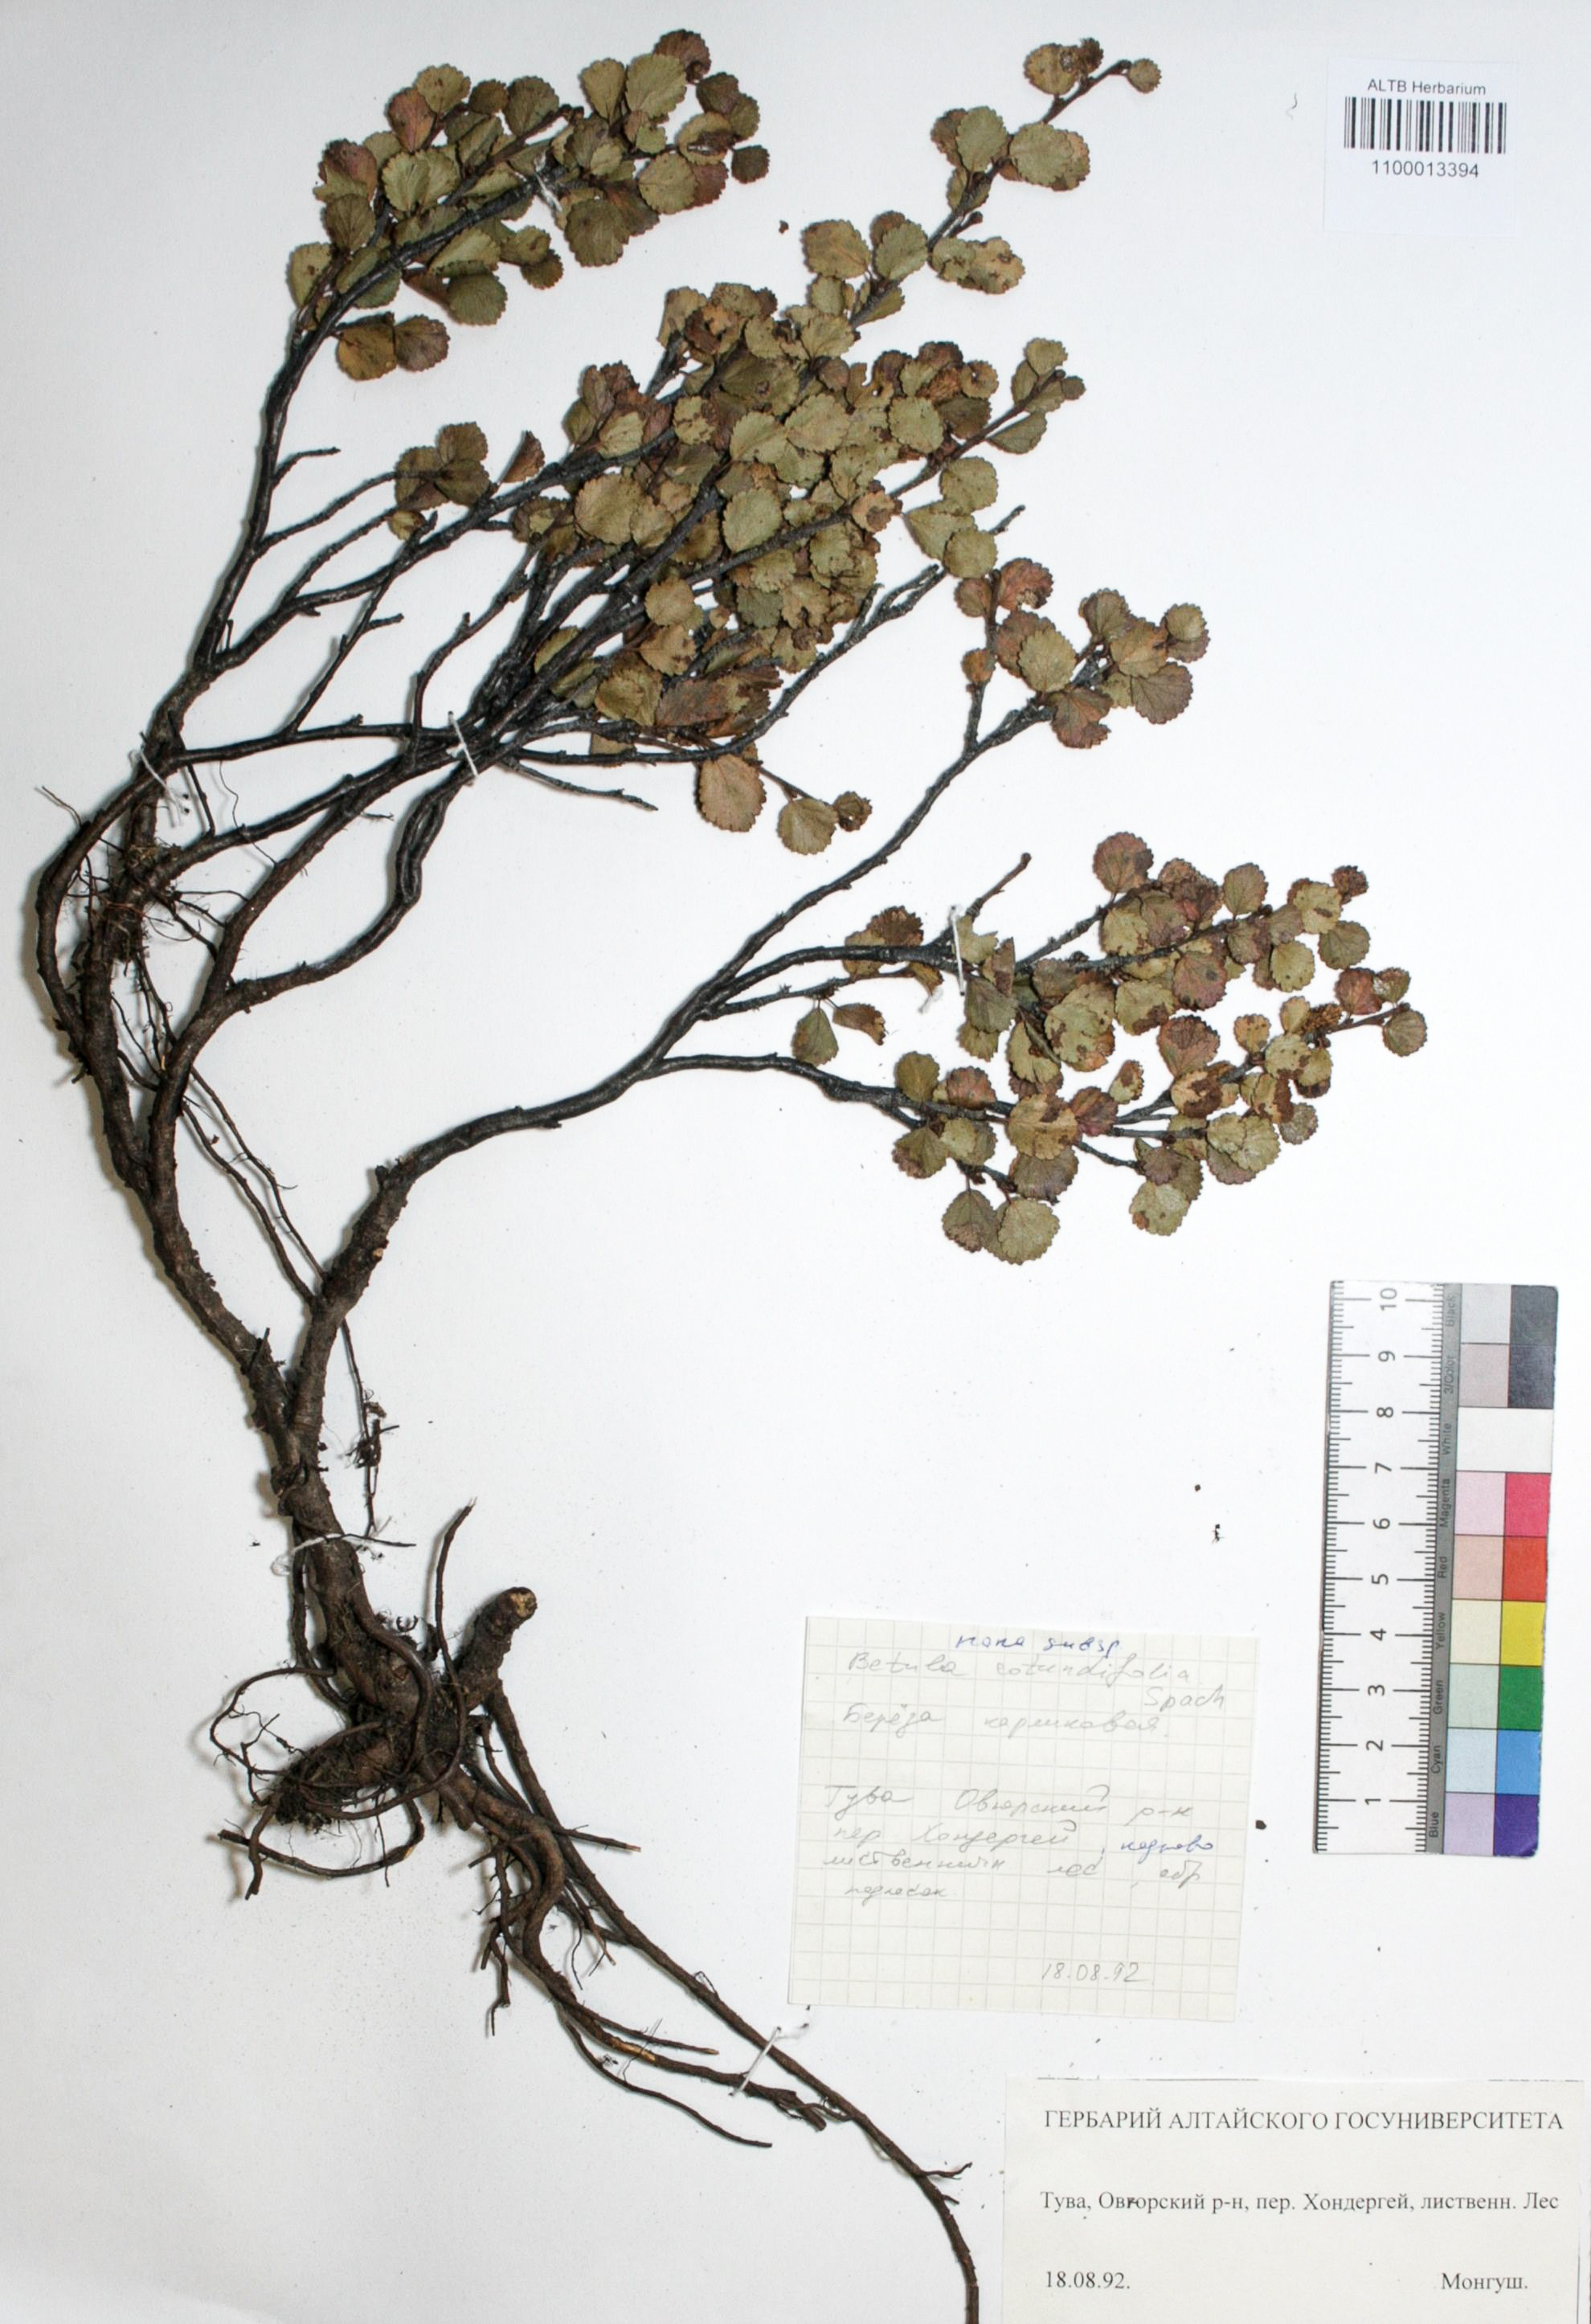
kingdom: Plantae
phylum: Tracheophyta
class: Magnoliopsida
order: Fagales
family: Betulaceae
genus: Betula
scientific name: Betula glandulosa
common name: Dwarf birch
